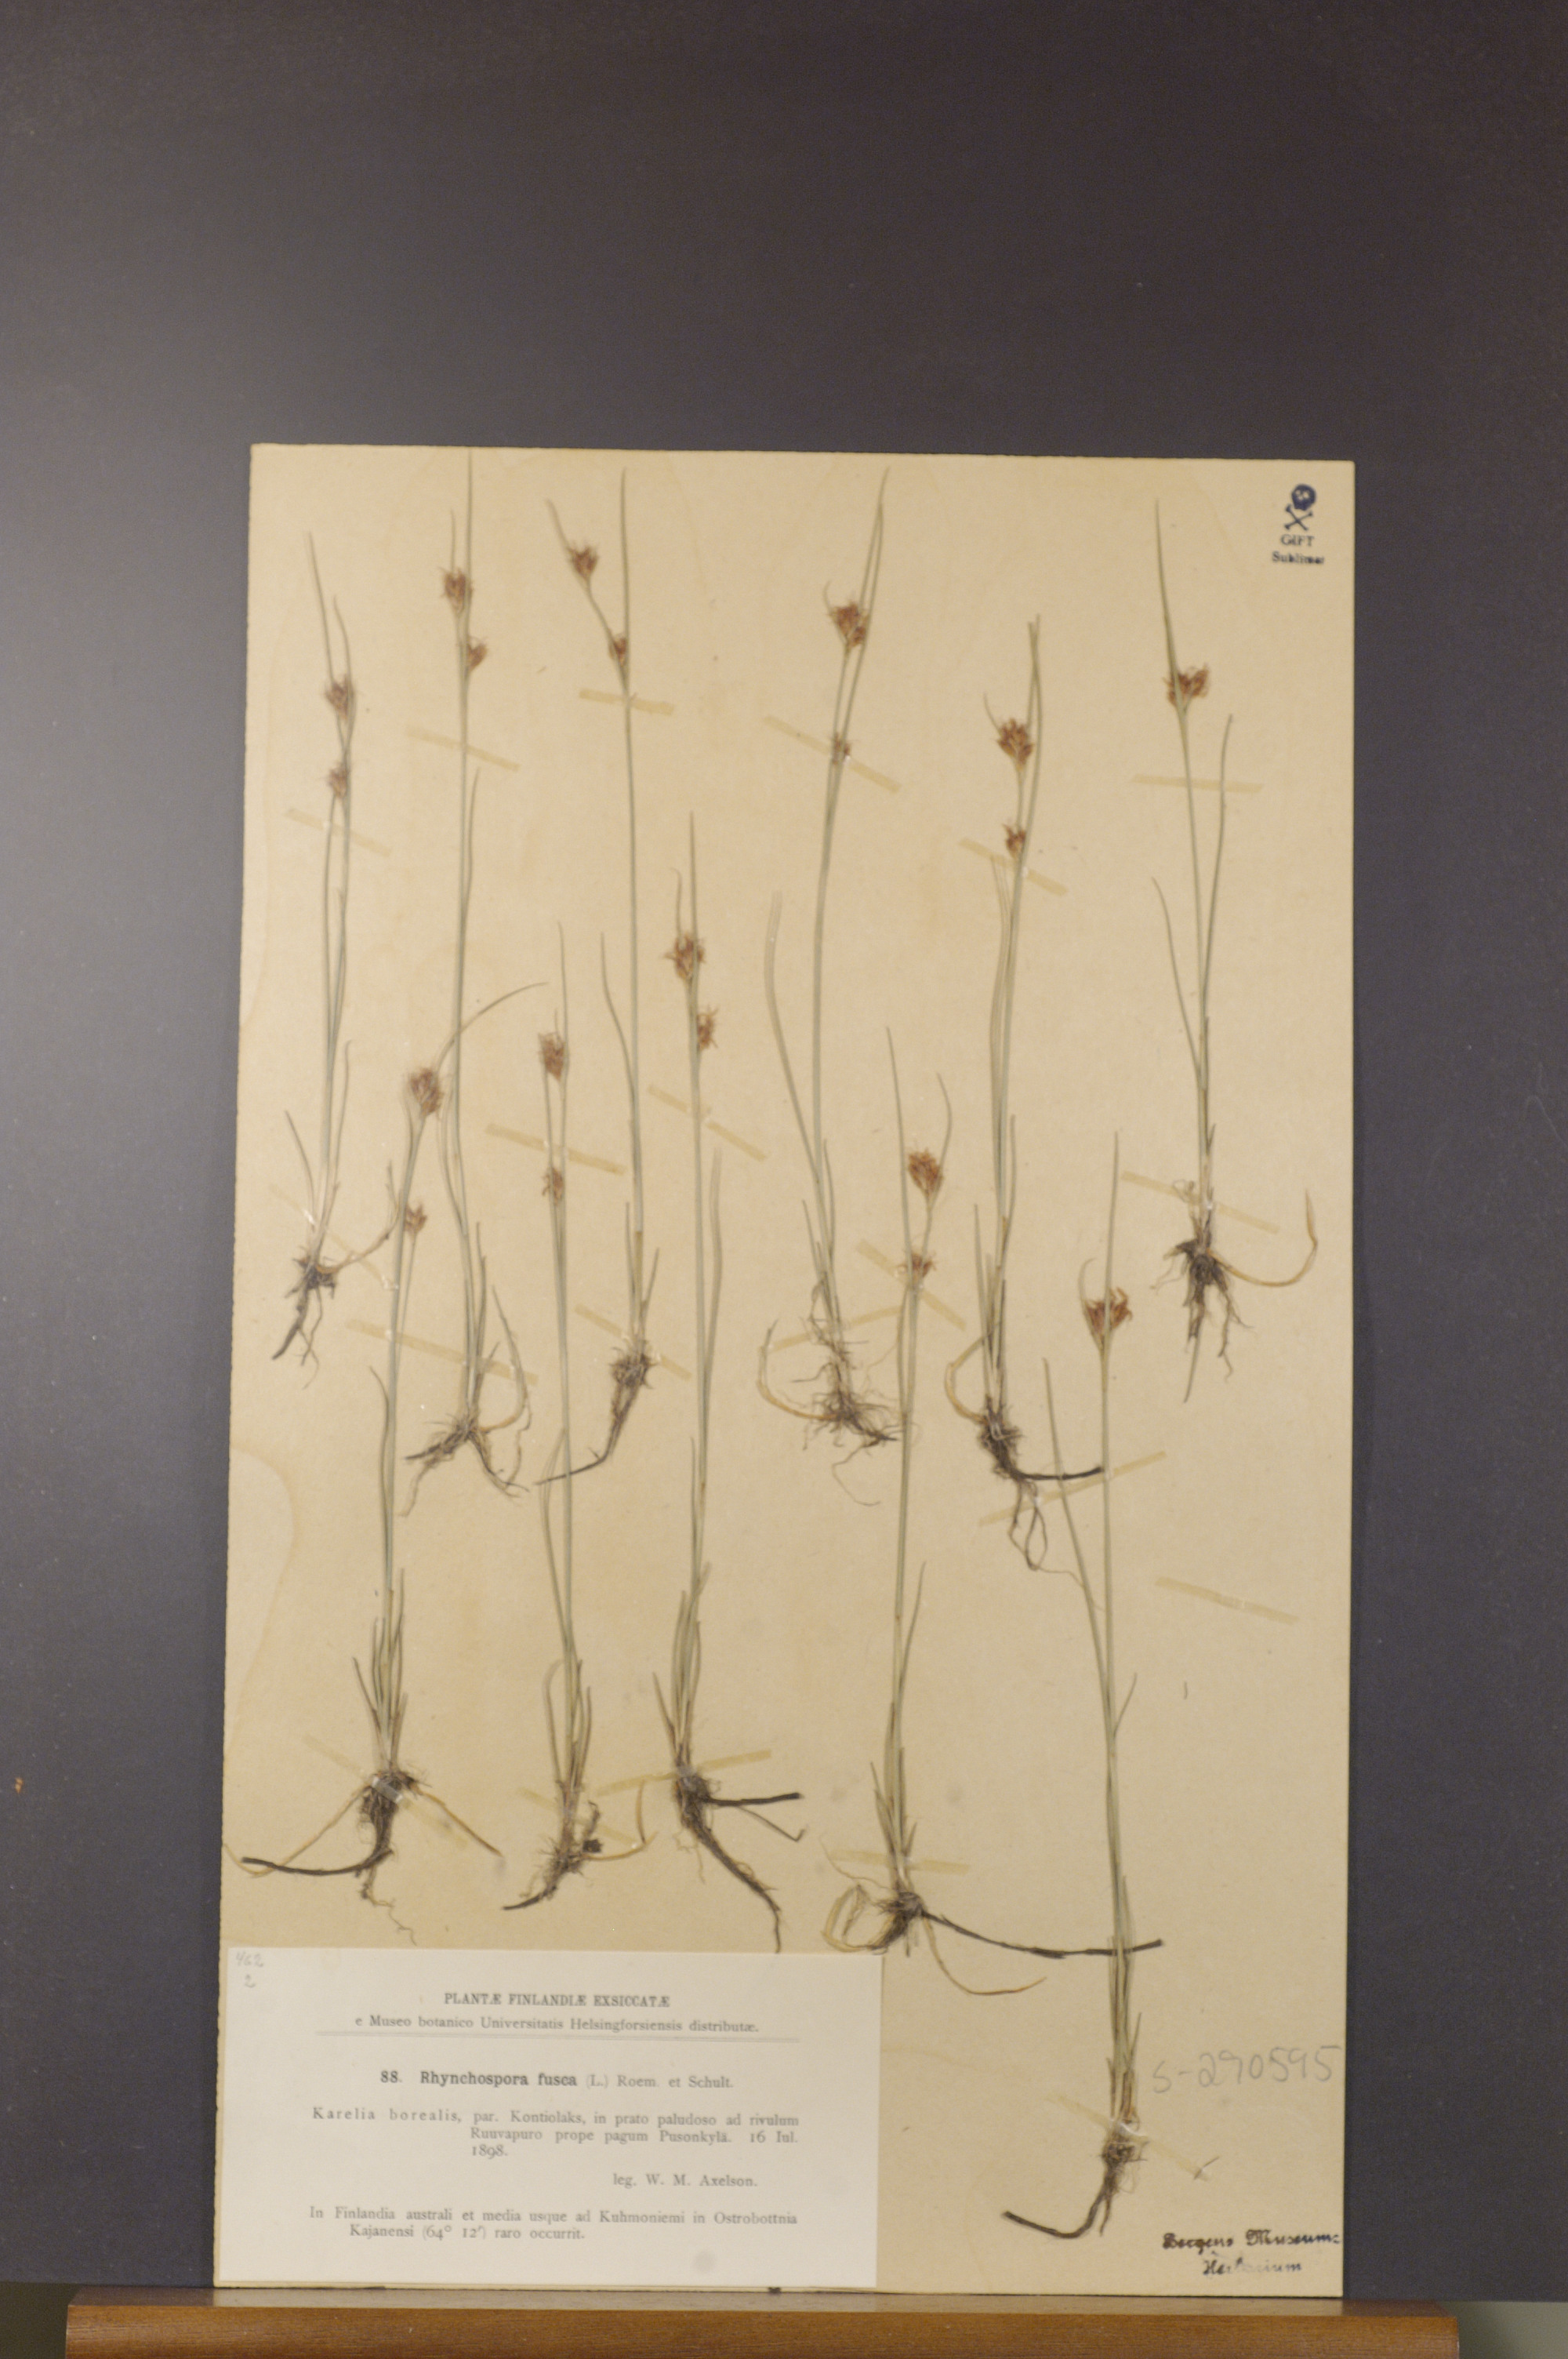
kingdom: Plantae
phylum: Tracheophyta
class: Liliopsida
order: Poales
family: Cyperaceae
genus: Rhynchospora
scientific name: Rhynchospora fusca
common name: Brown beak-sedge
